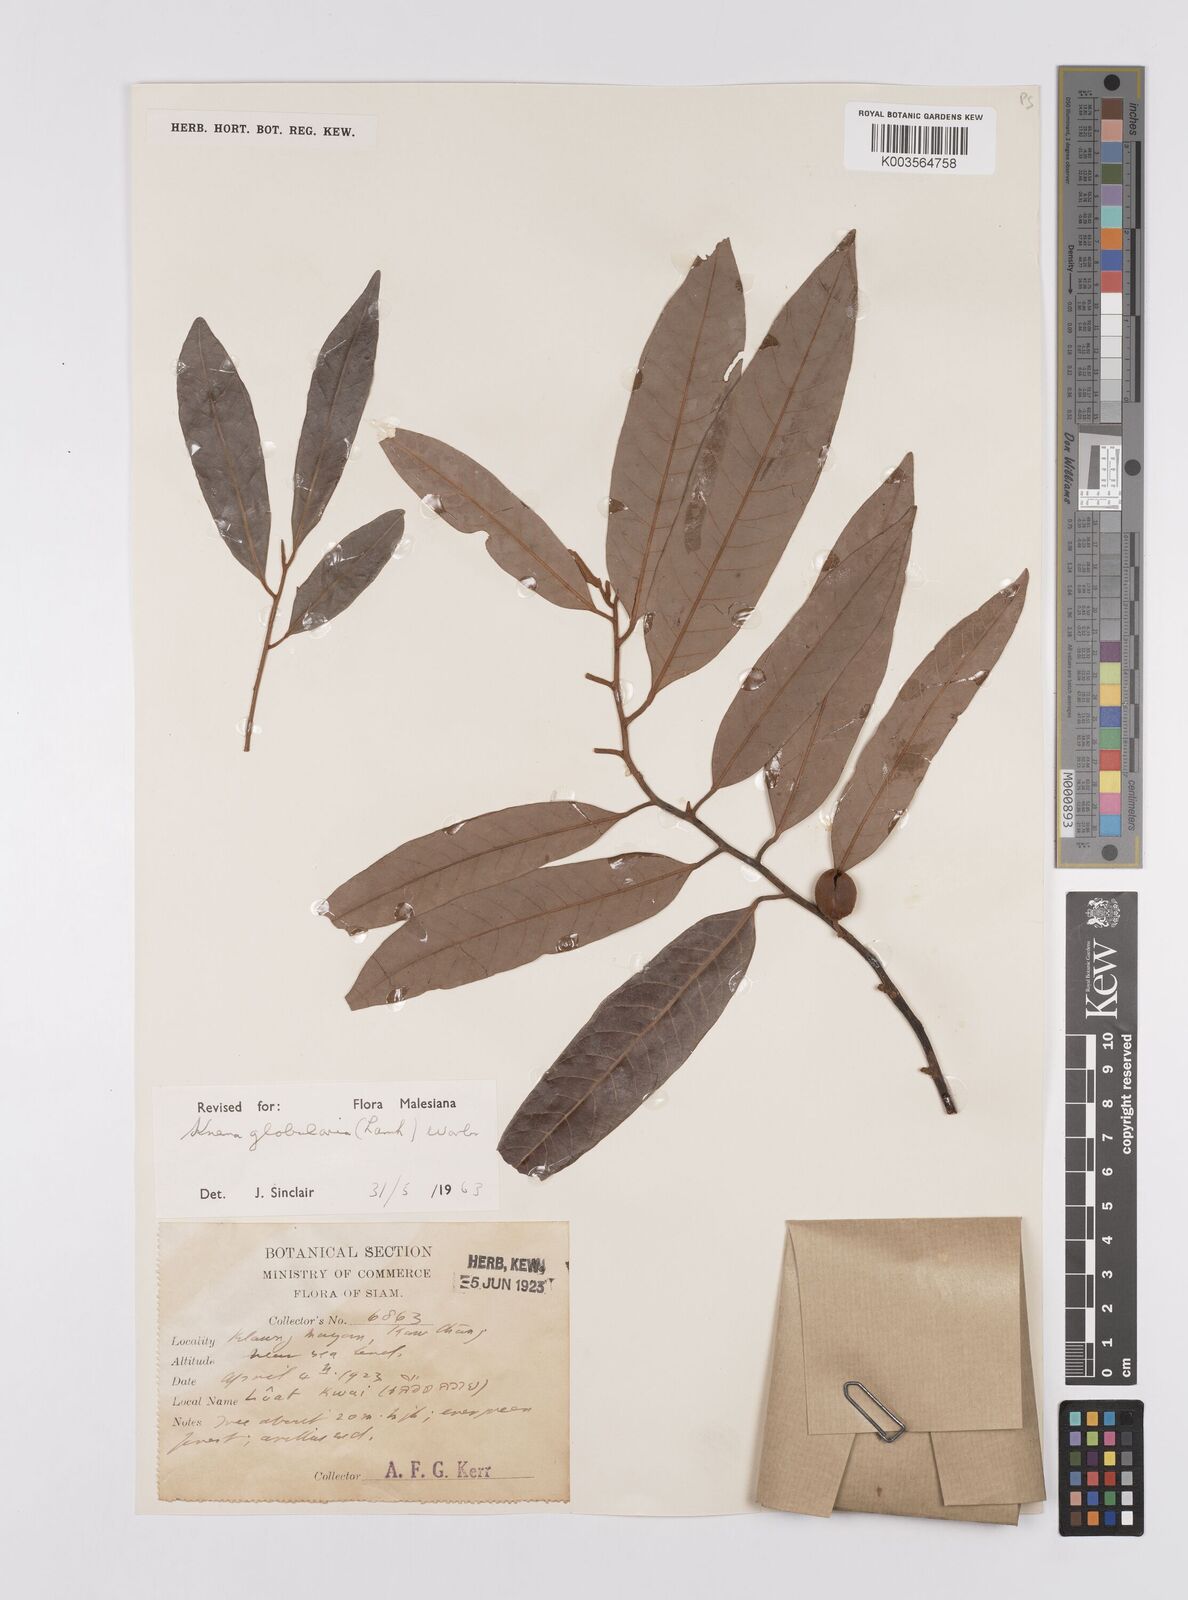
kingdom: Plantae
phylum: Tracheophyta
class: Magnoliopsida
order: Magnoliales
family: Myristicaceae
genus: Knema
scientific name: Knema globularia
